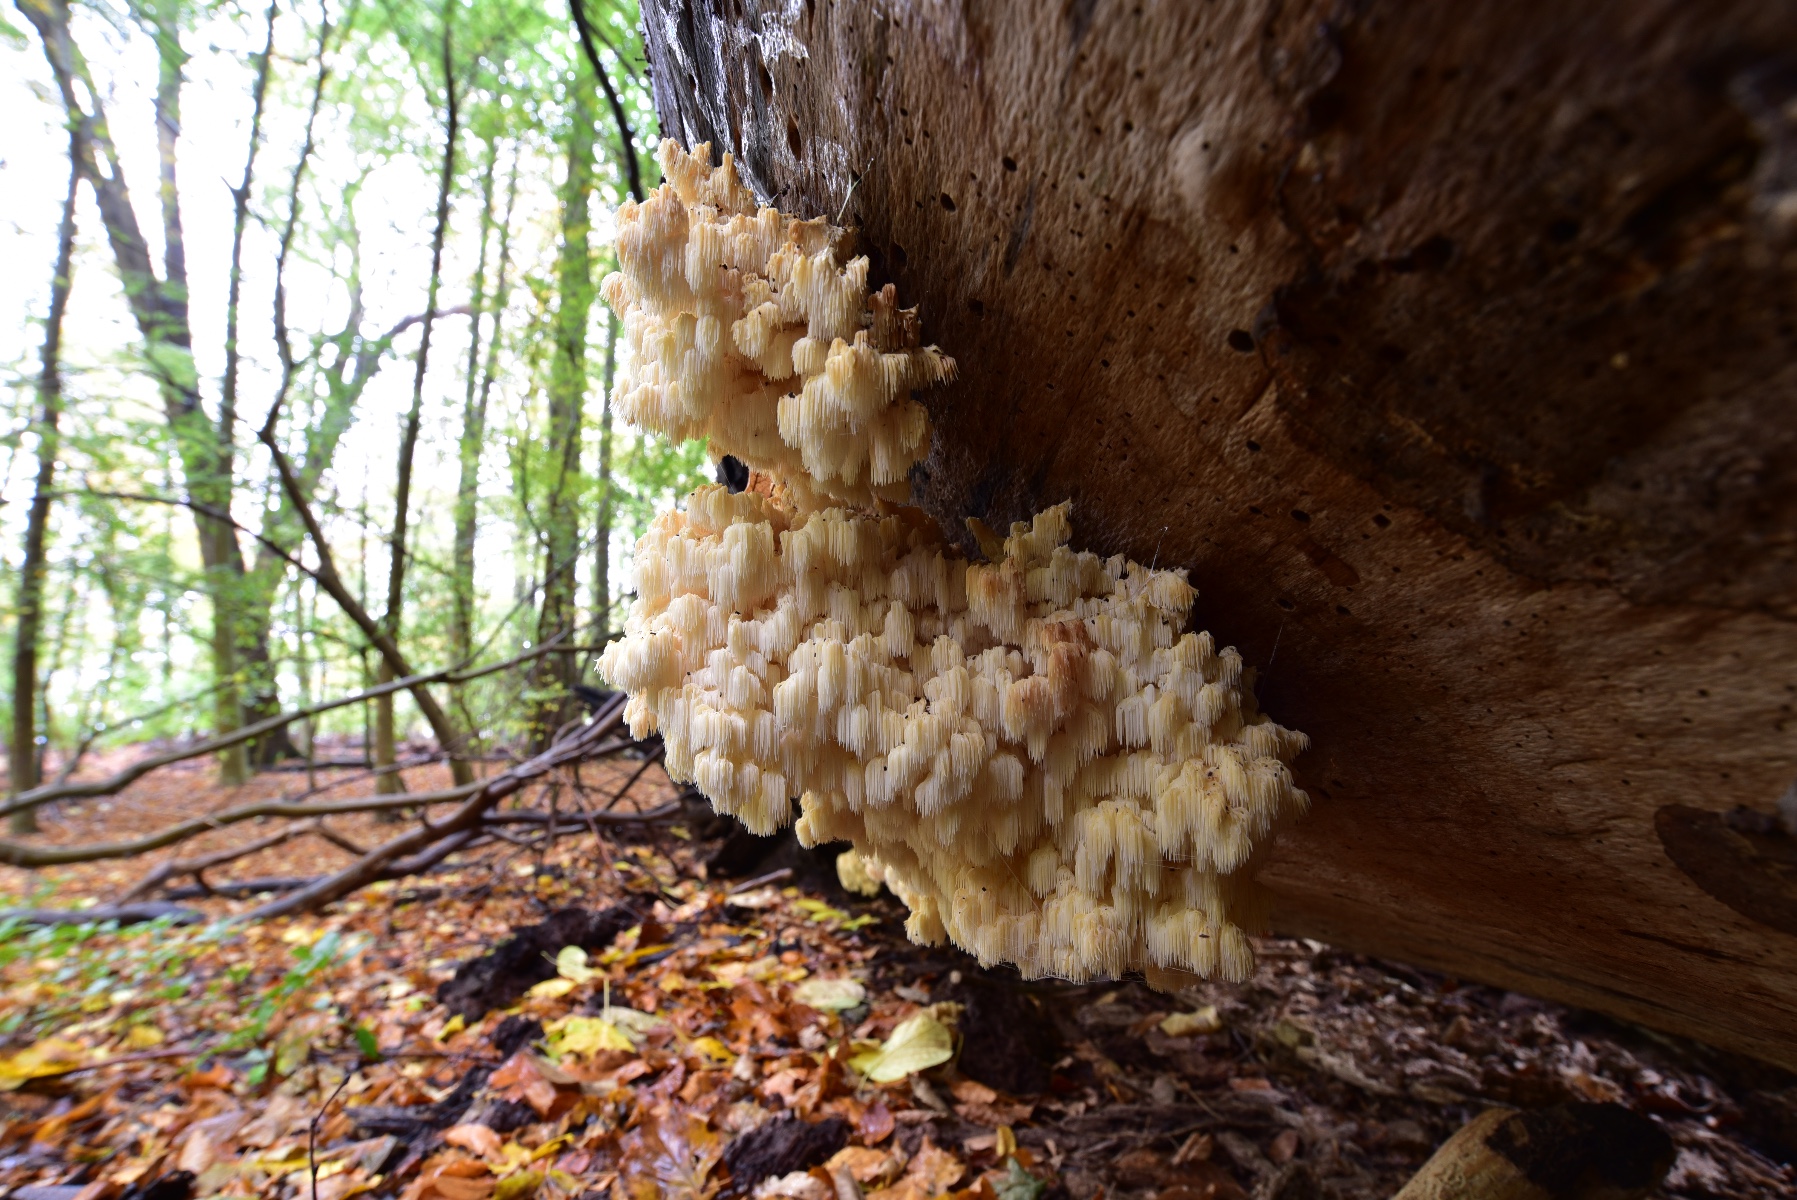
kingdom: Fungi
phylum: Basidiomycota
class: Agaricomycetes
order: Russulales
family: Hericiaceae
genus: Hericium
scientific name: Hericium coralloides
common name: koralpigsvamp
